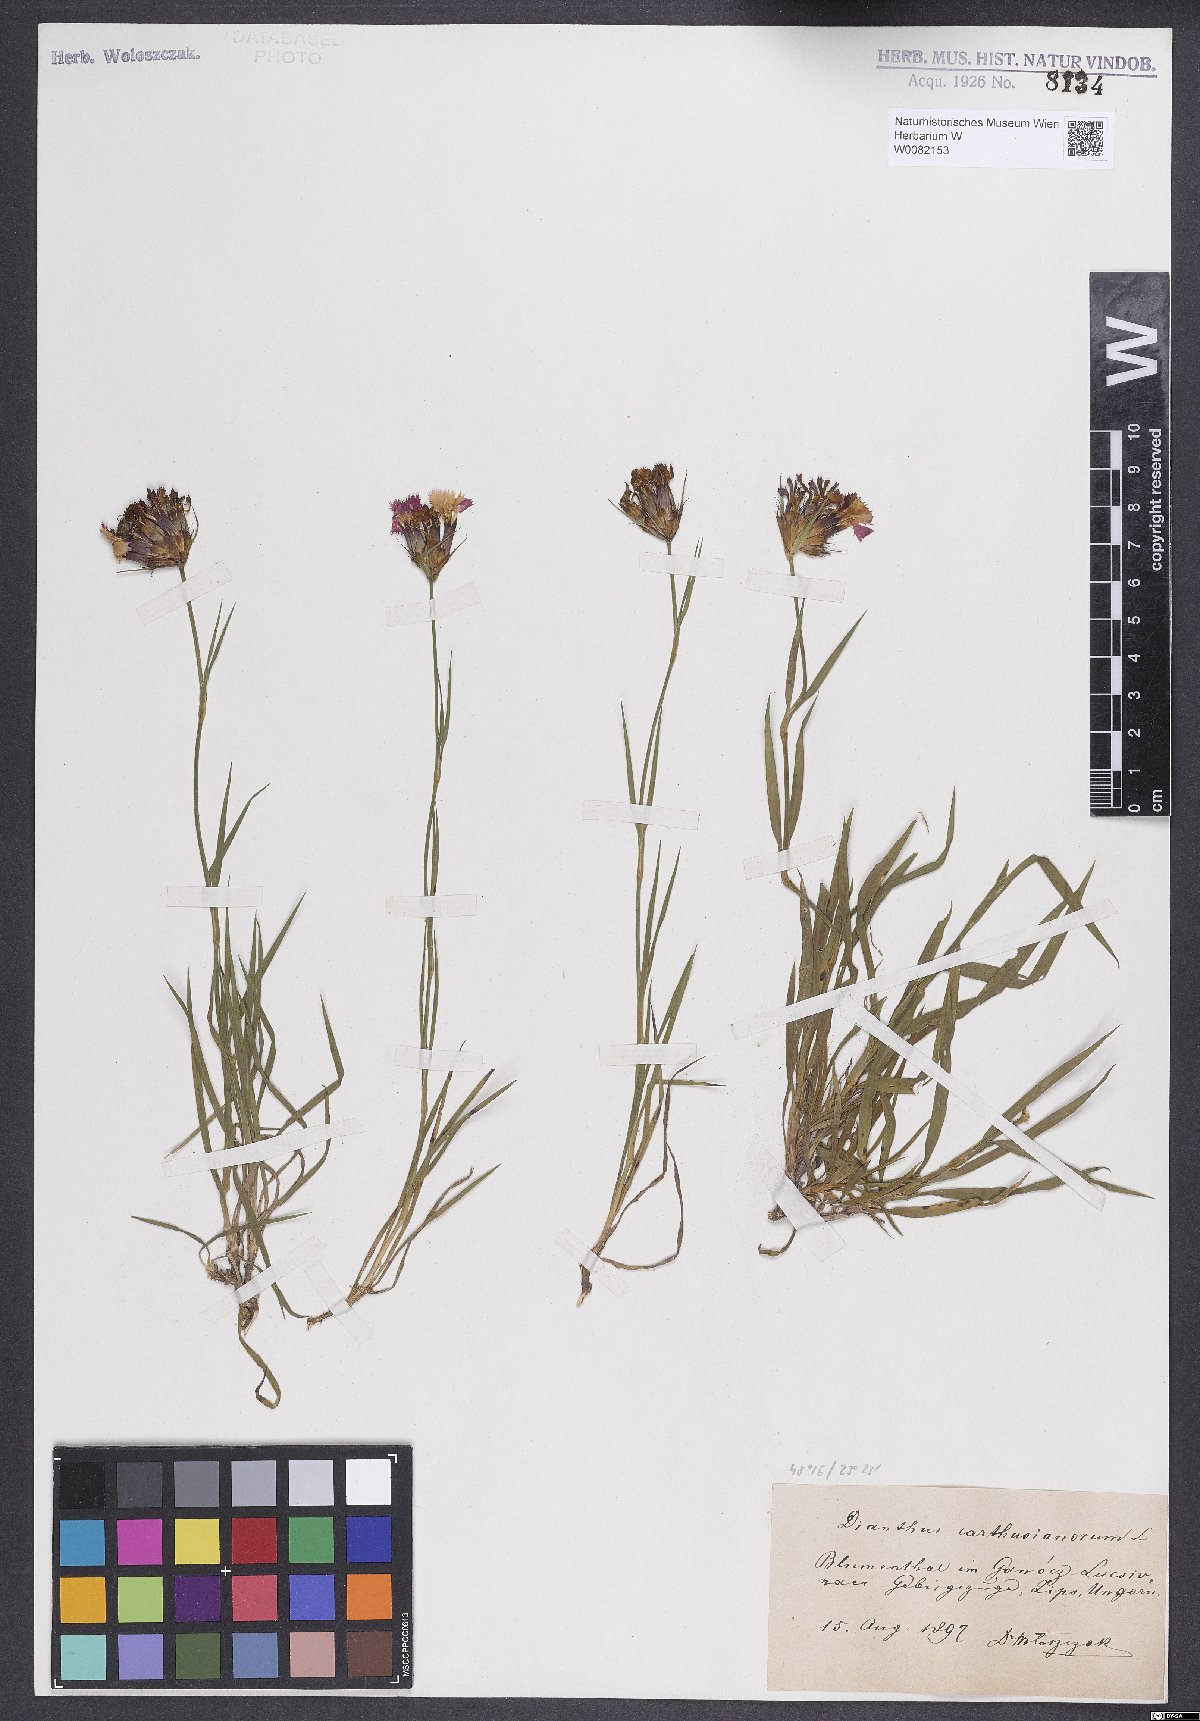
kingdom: Plantae
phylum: Tracheophyta
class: Magnoliopsida
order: Caryophyllales
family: Caryophyllaceae
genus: Dianthus
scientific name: Dianthus carthusianorum
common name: Carthusian pink
